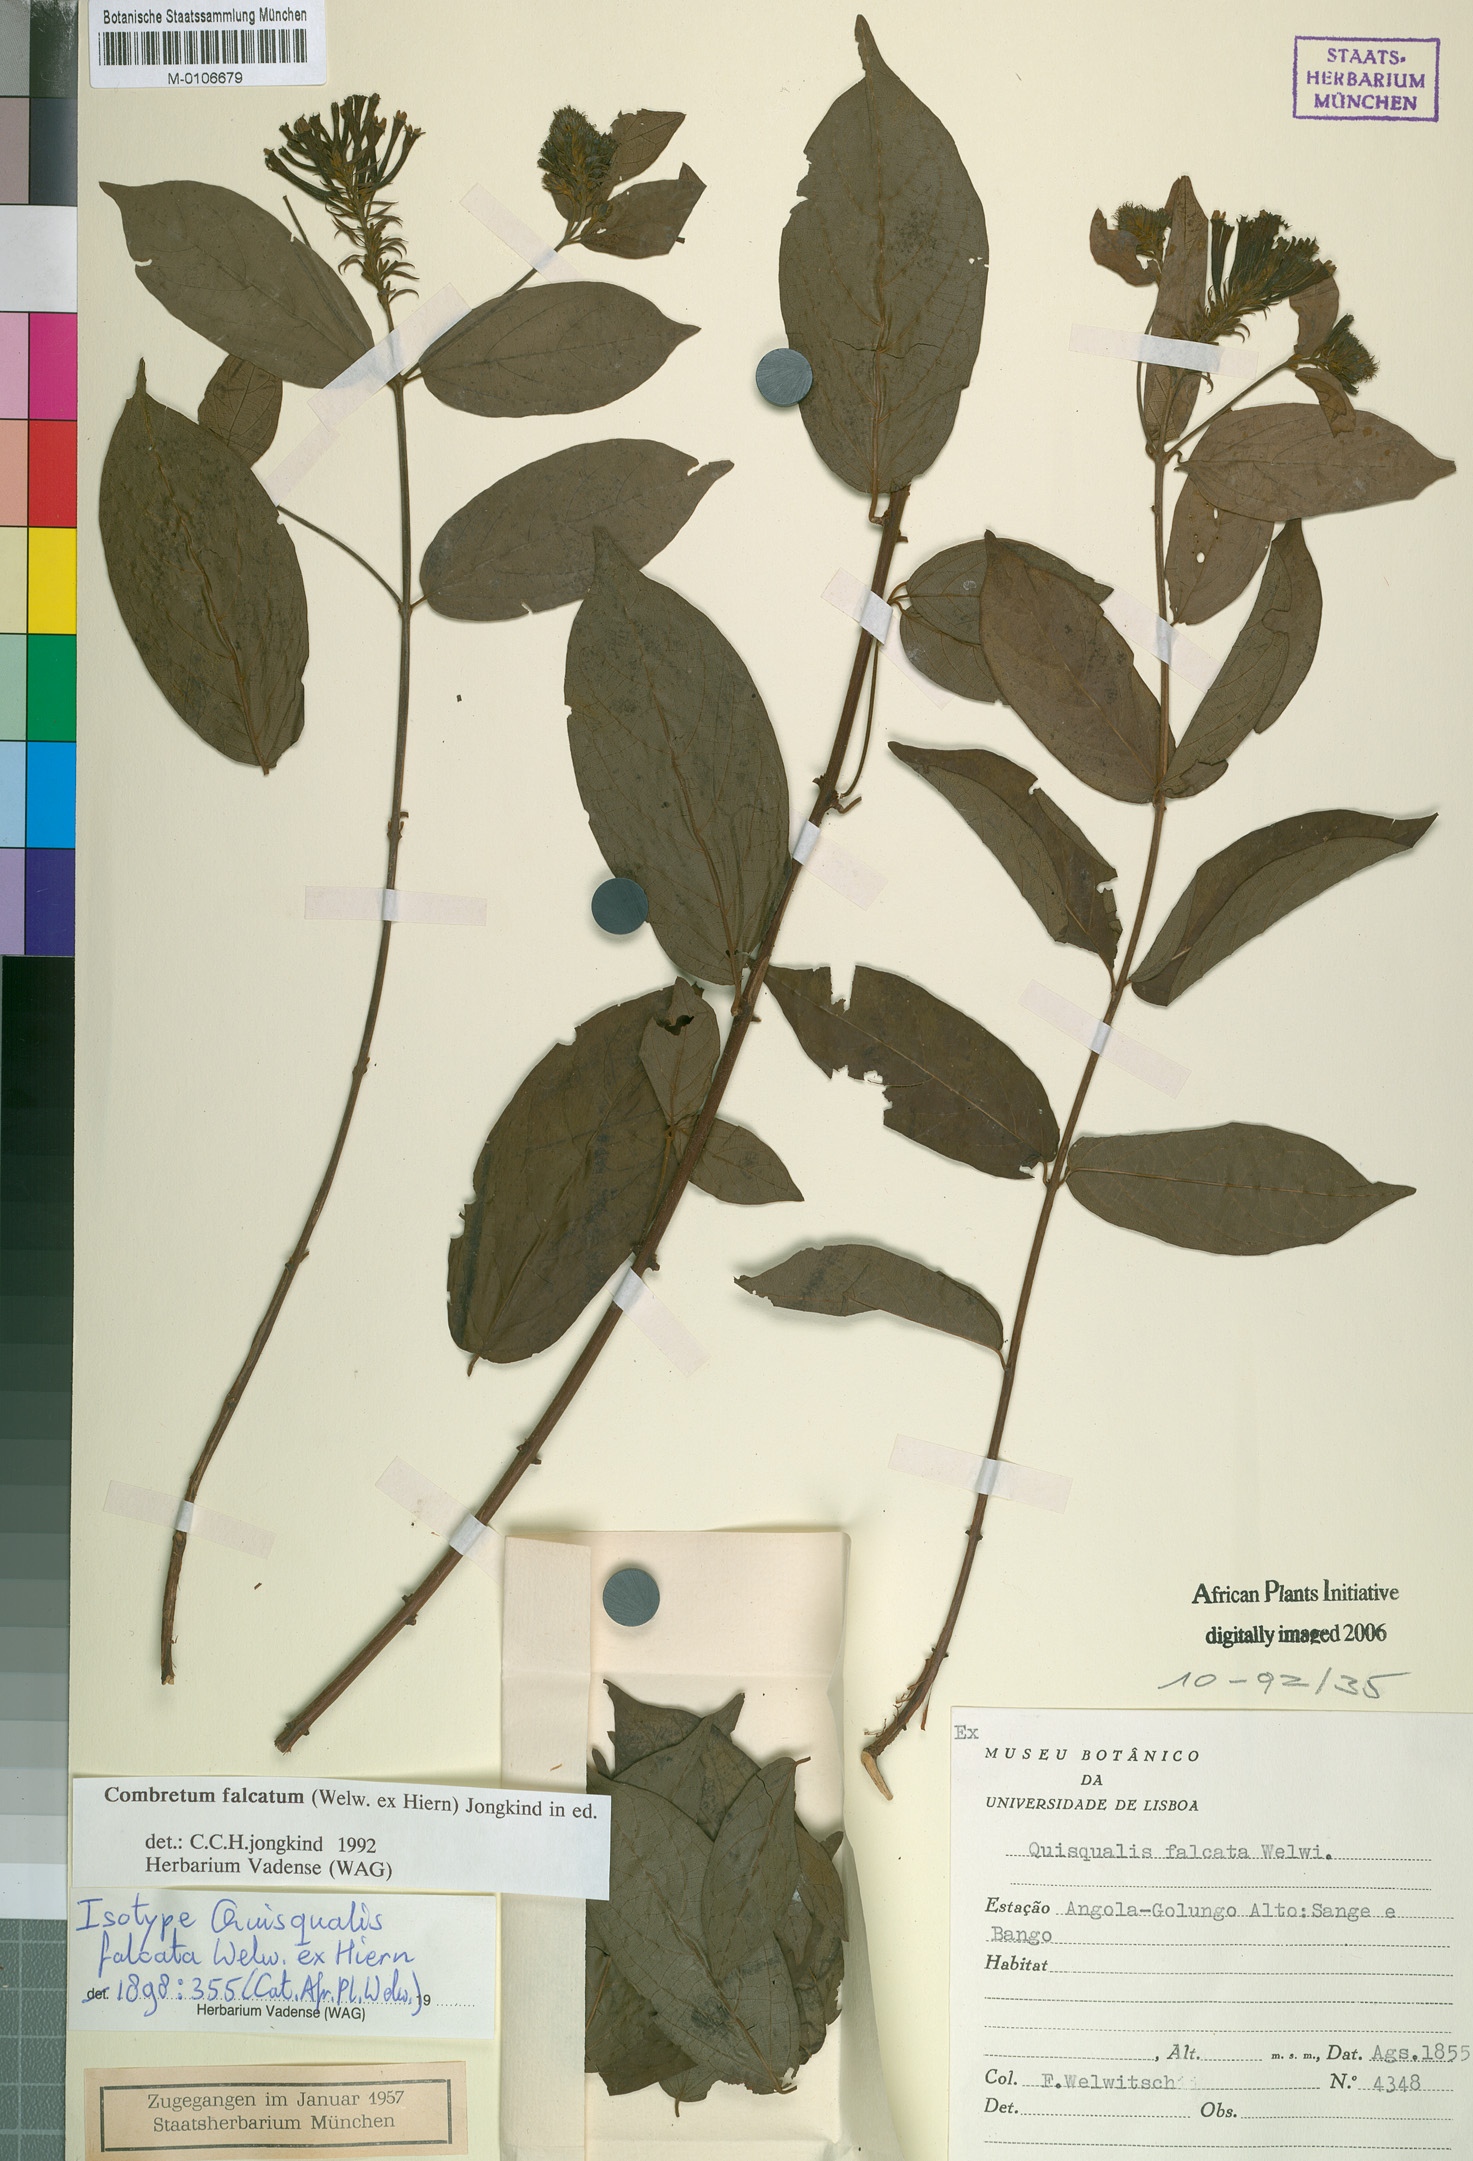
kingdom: Plantae
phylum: Tracheophyta
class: Magnoliopsida
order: Myrtales
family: Combretaceae
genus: Combretum
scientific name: Combretum falcatum
